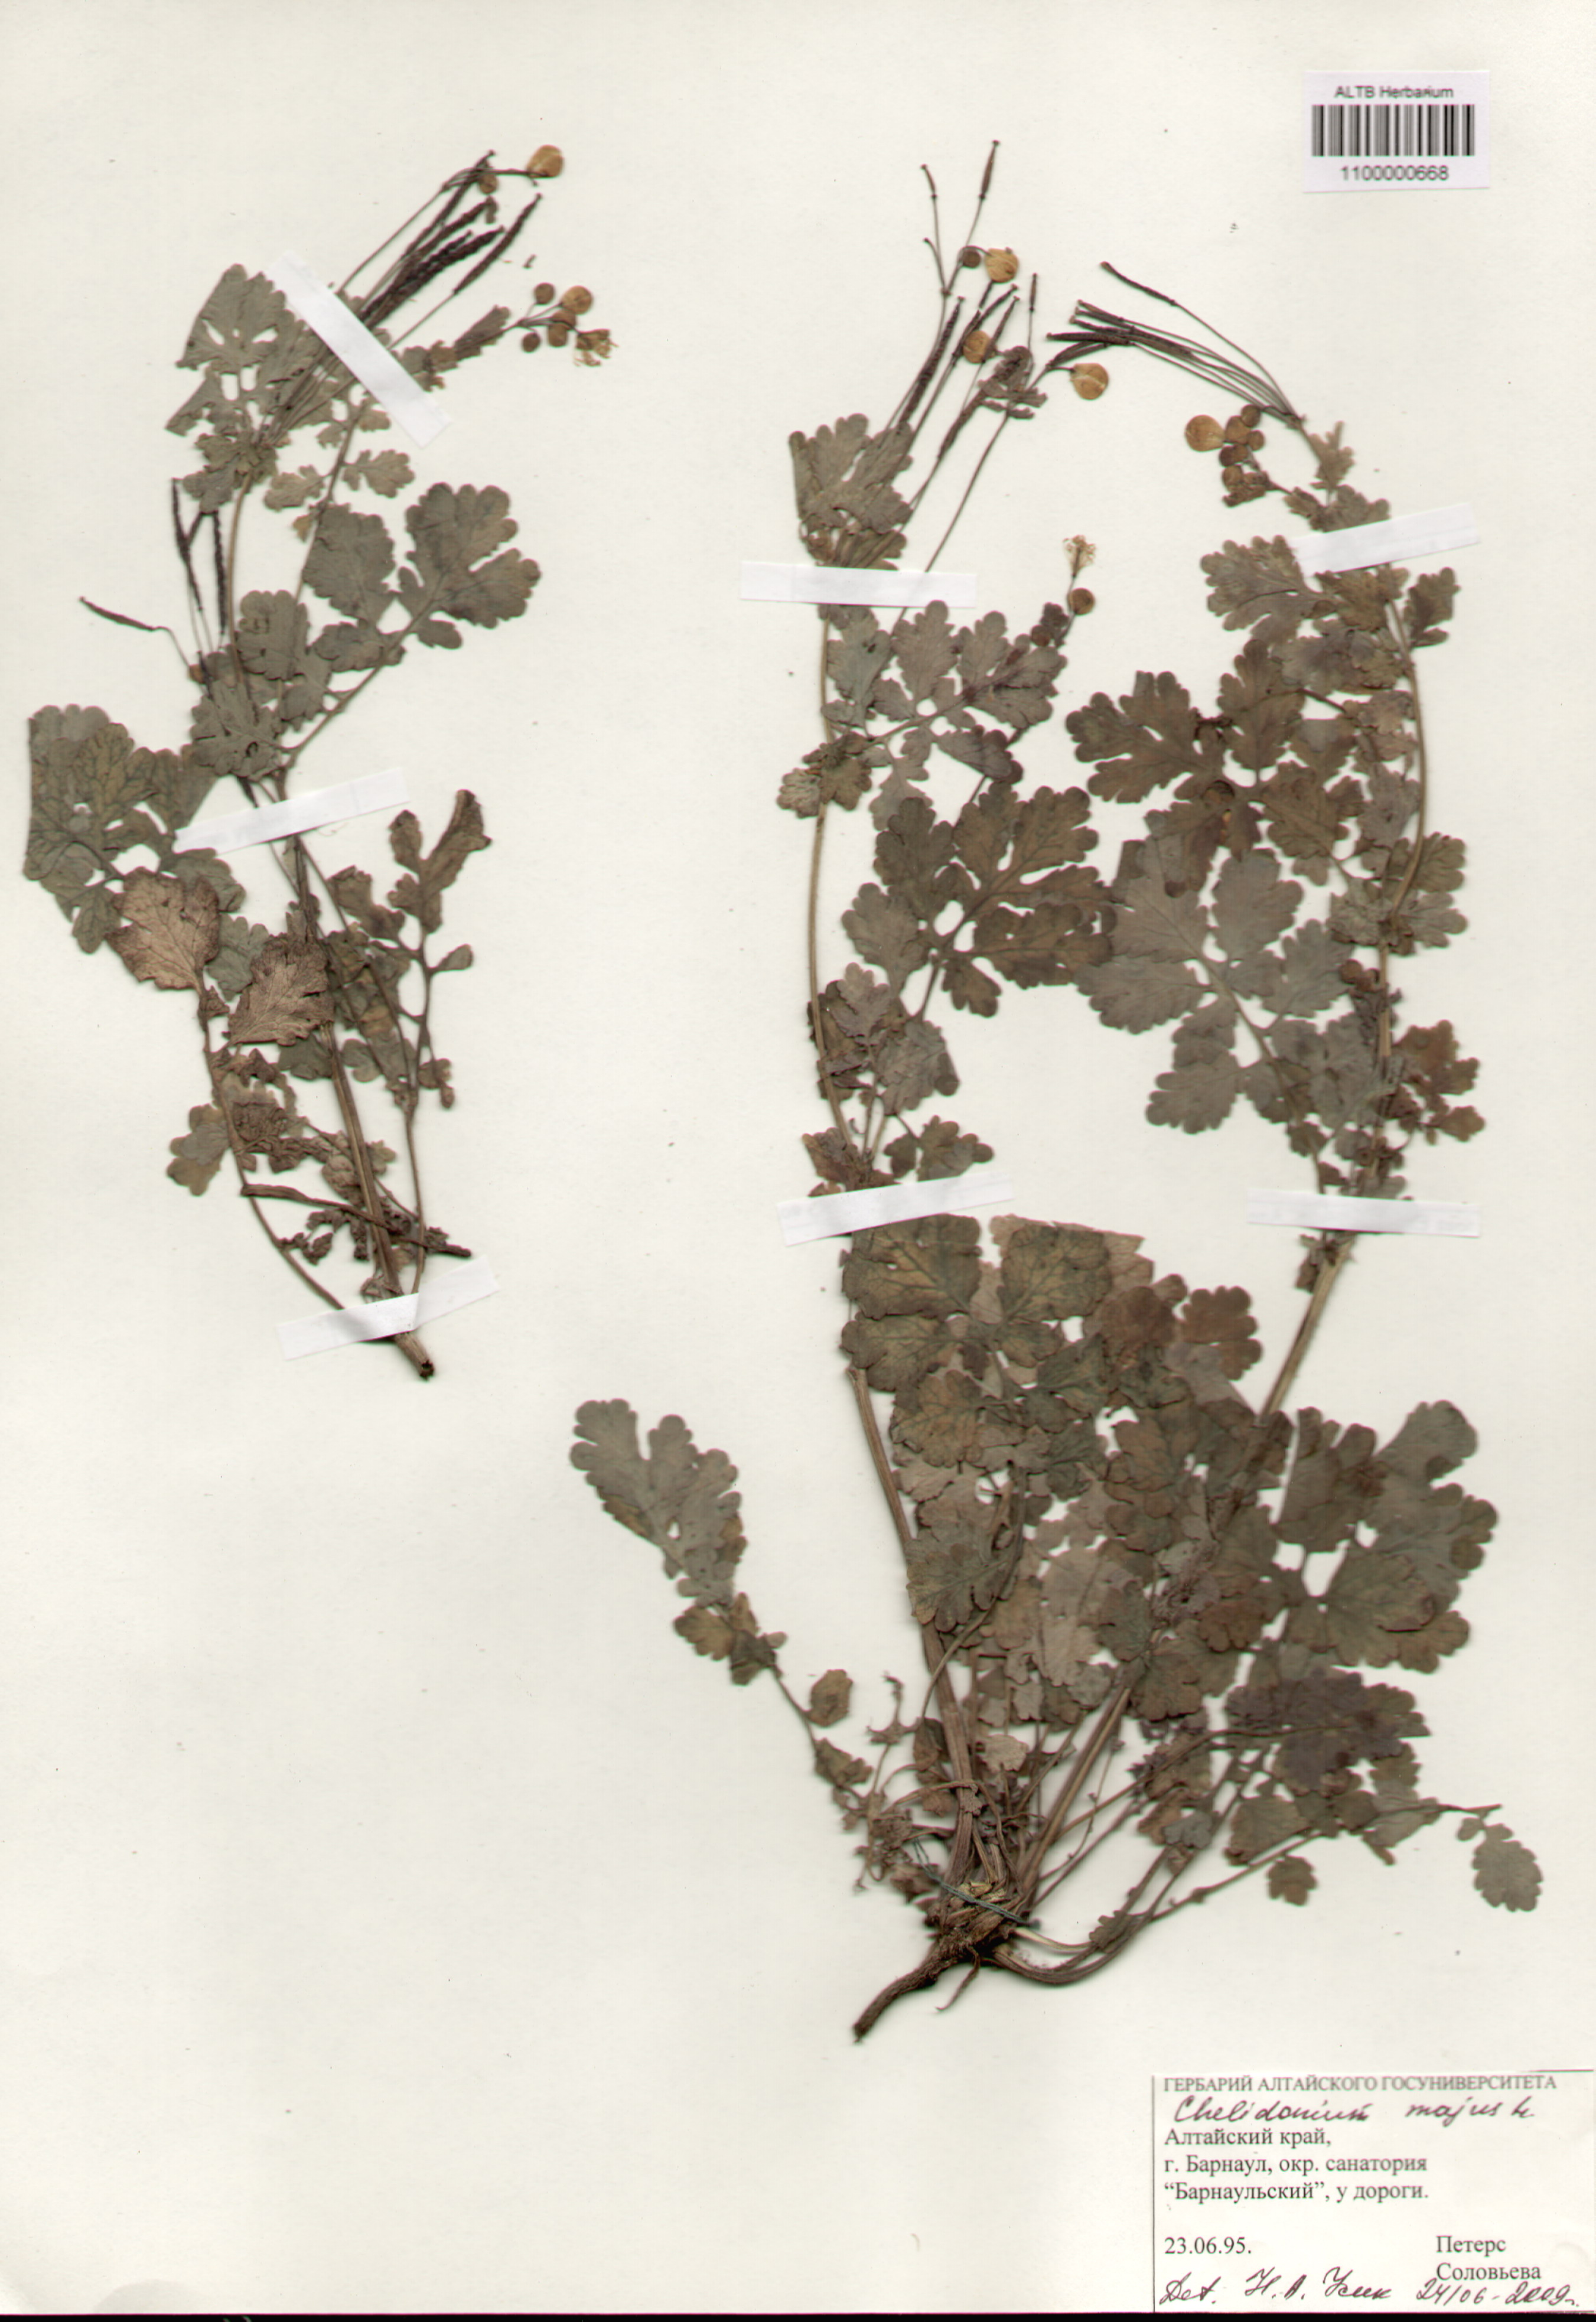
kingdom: Plantae
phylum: Tracheophyta
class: Magnoliopsida
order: Ranunculales
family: Papaveraceae
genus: Chelidonium
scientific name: Chelidonium majus
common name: Greater celandine
